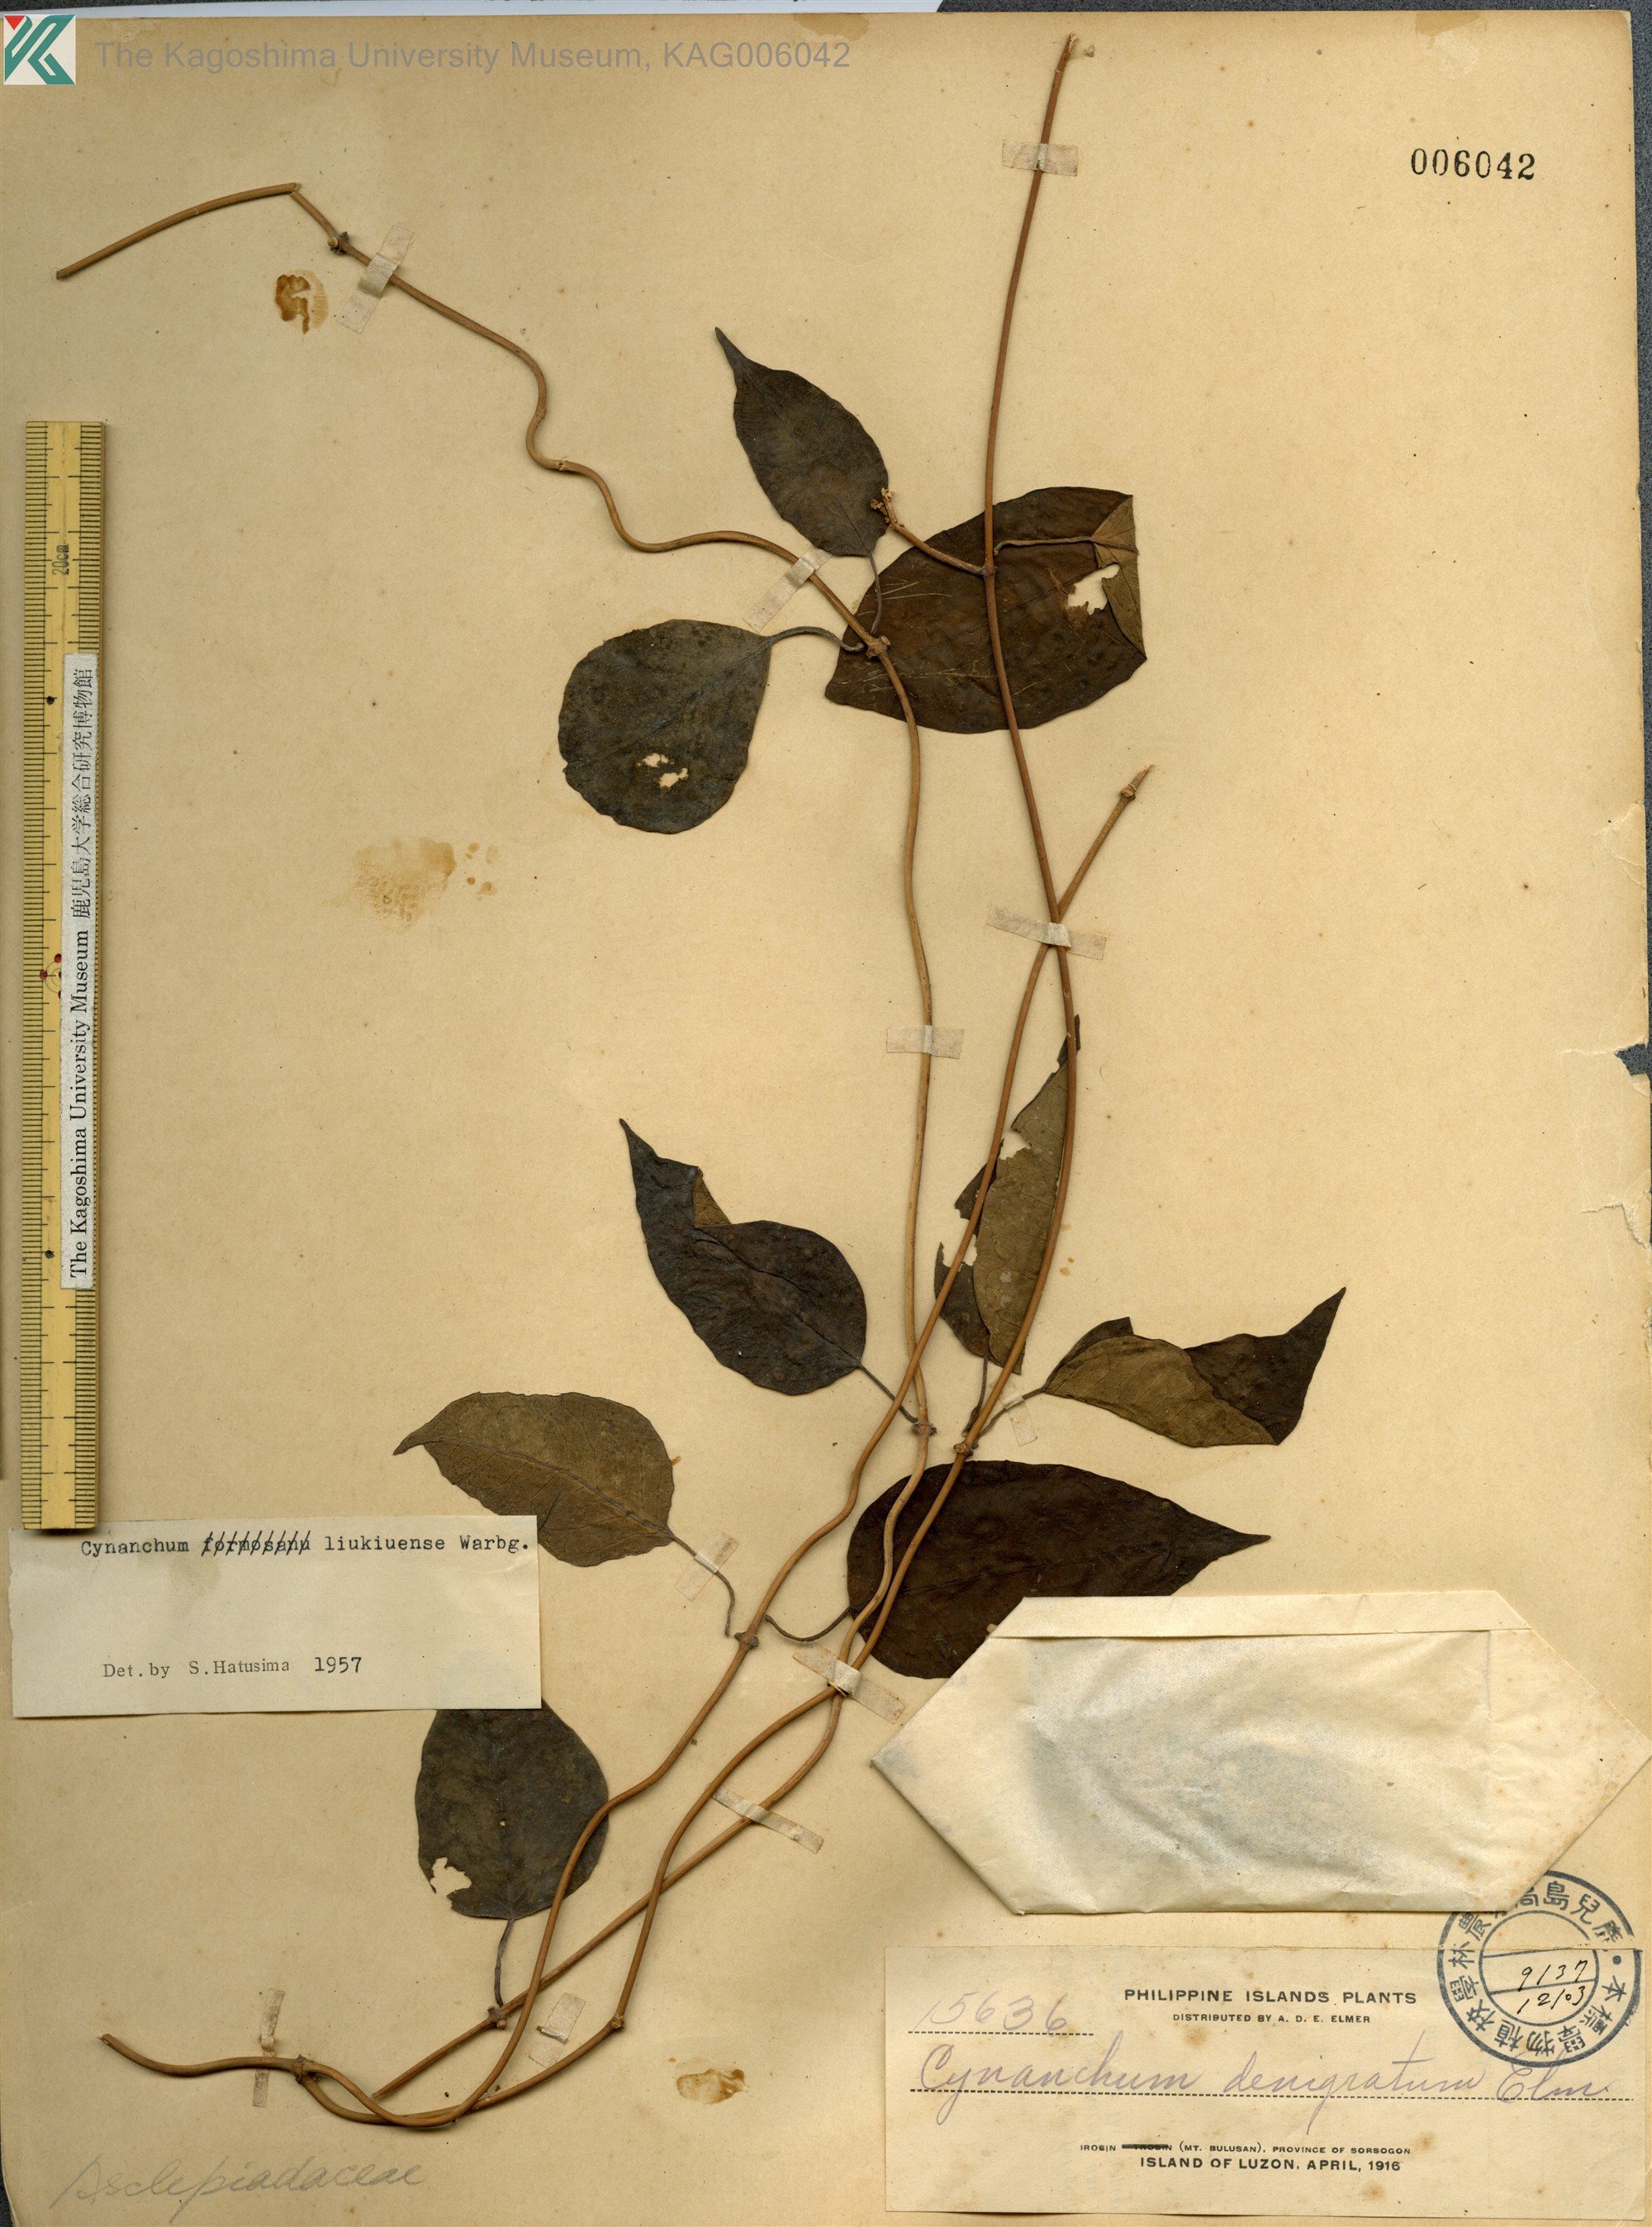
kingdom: Plantae
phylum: Tracheophyta
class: Magnoliopsida
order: Gentianales
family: Apocynaceae
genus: Cynanchum
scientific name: Cynanchum liukiuense
